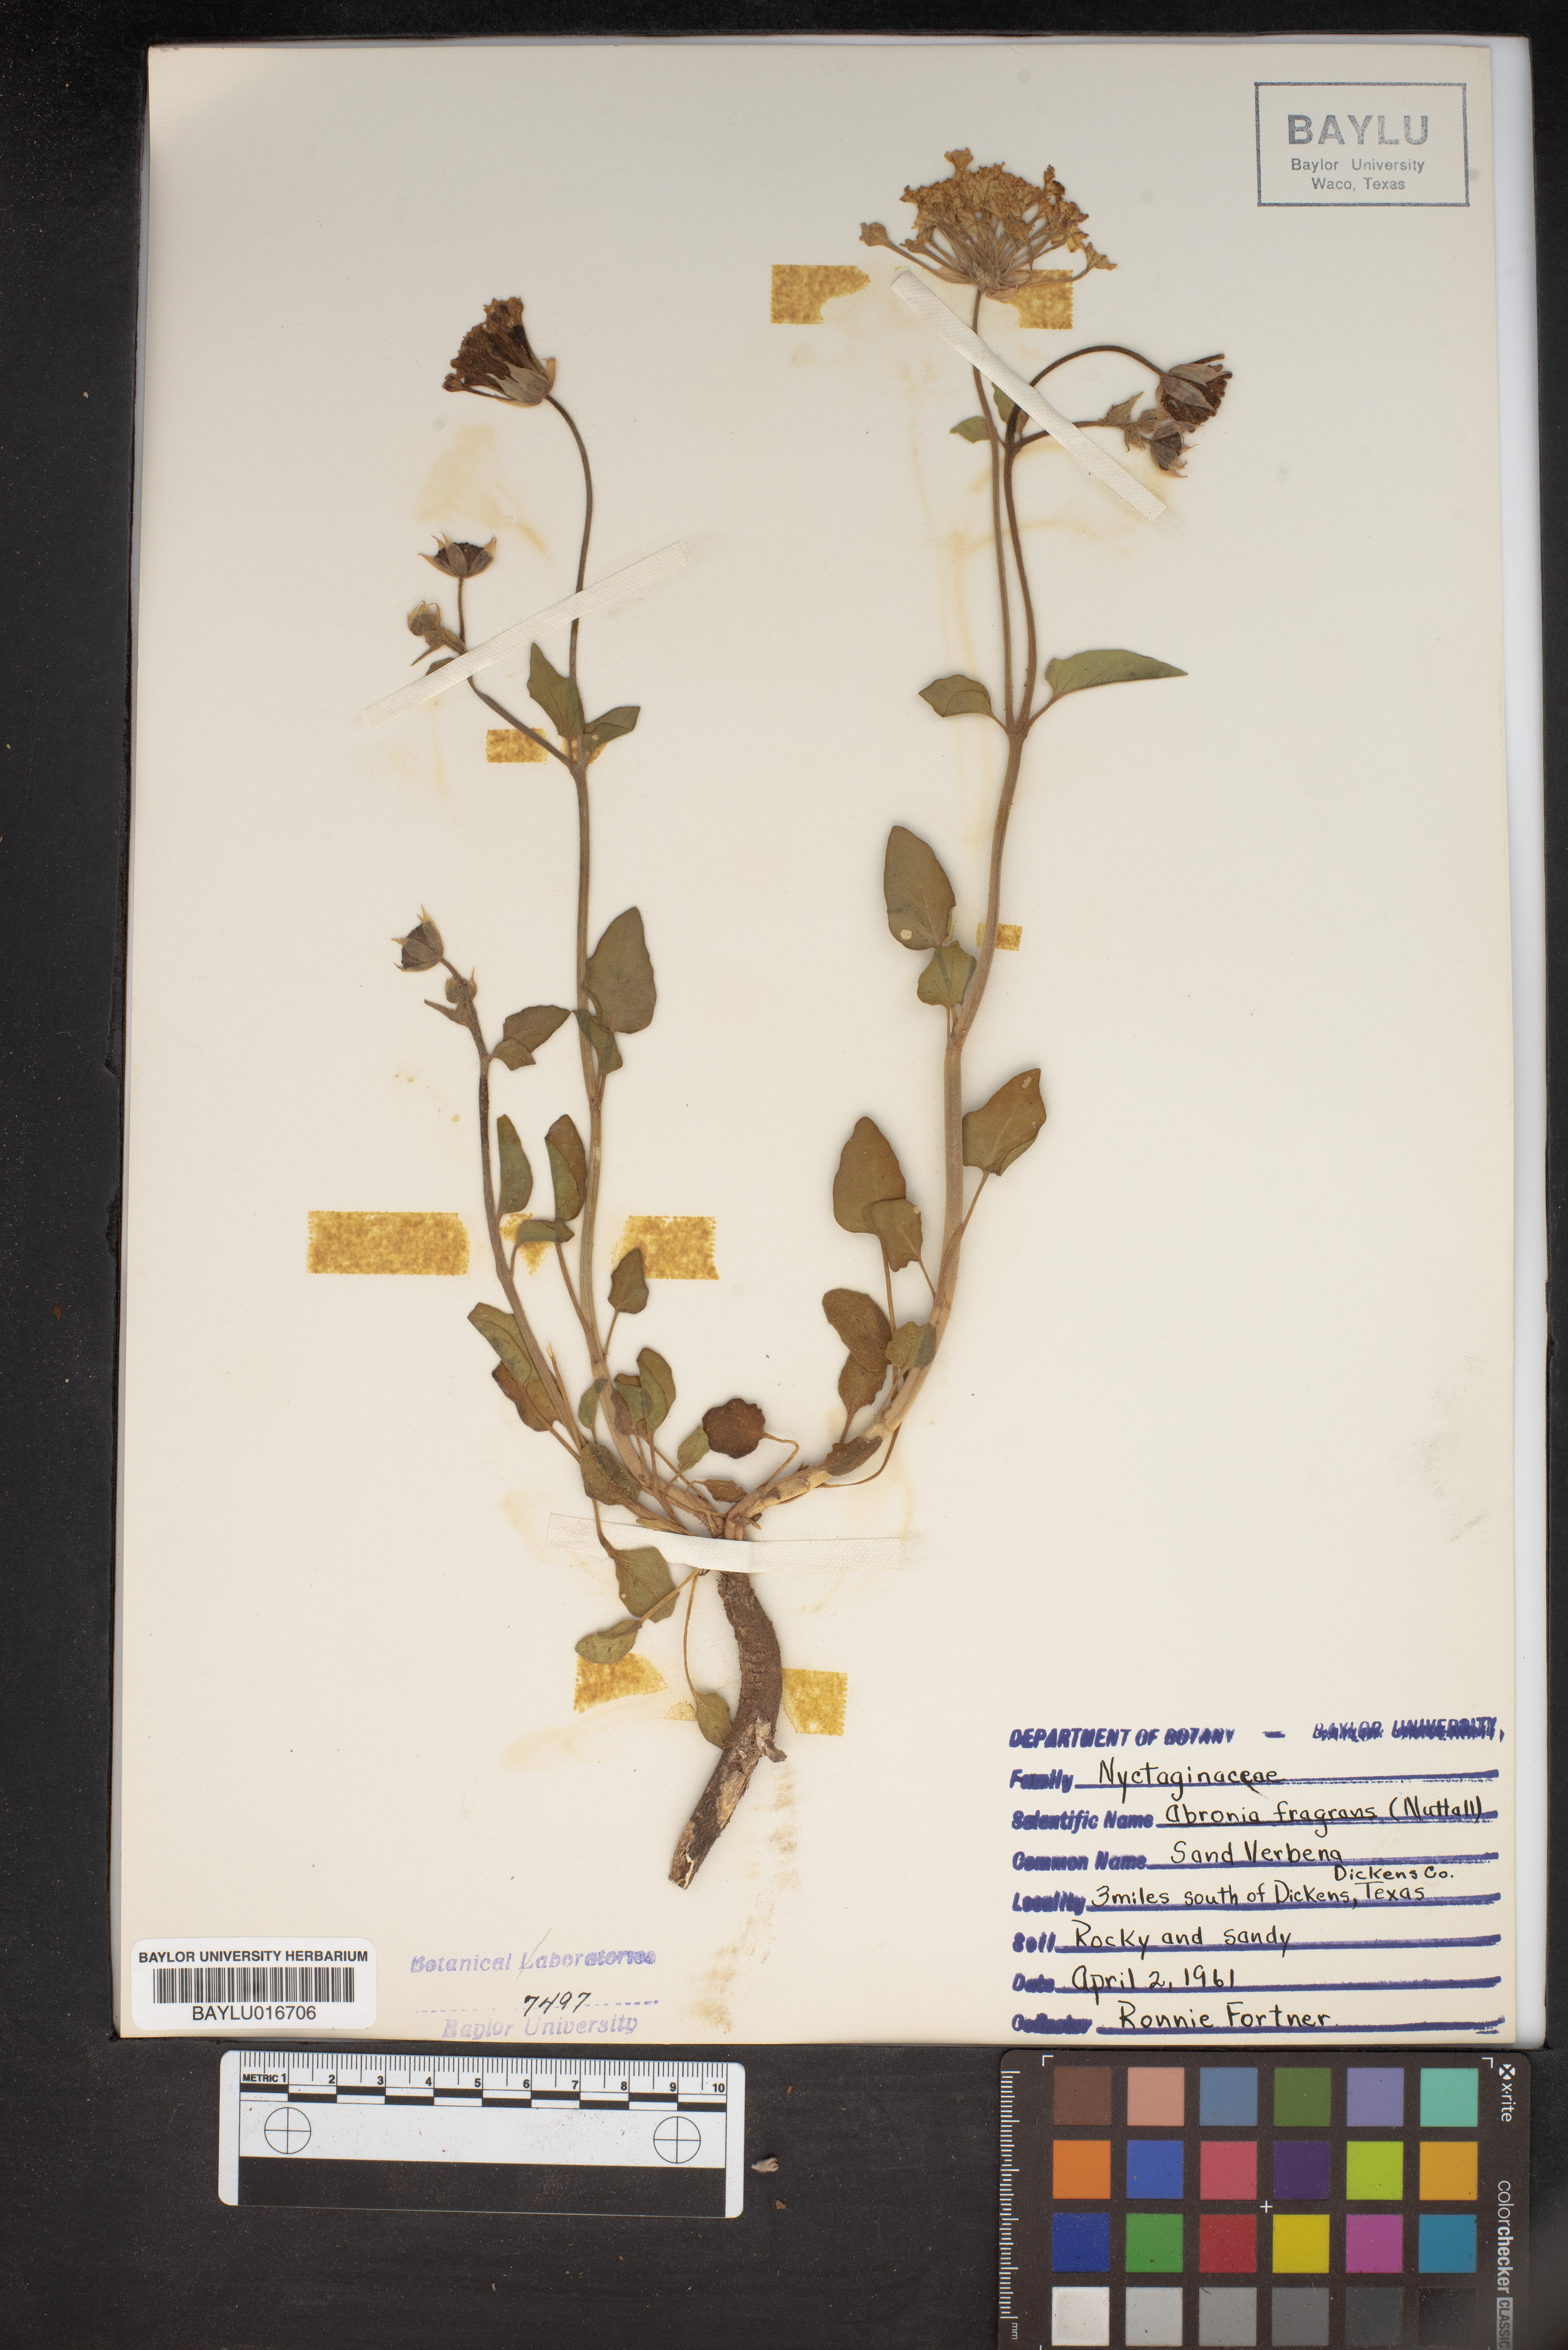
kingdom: Plantae
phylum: Tracheophyta
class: Magnoliopsida
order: Caryophyllales
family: Nyctaginaceae
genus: Abronia
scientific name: Abronia fragrans
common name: Fragrant sand-verbena
